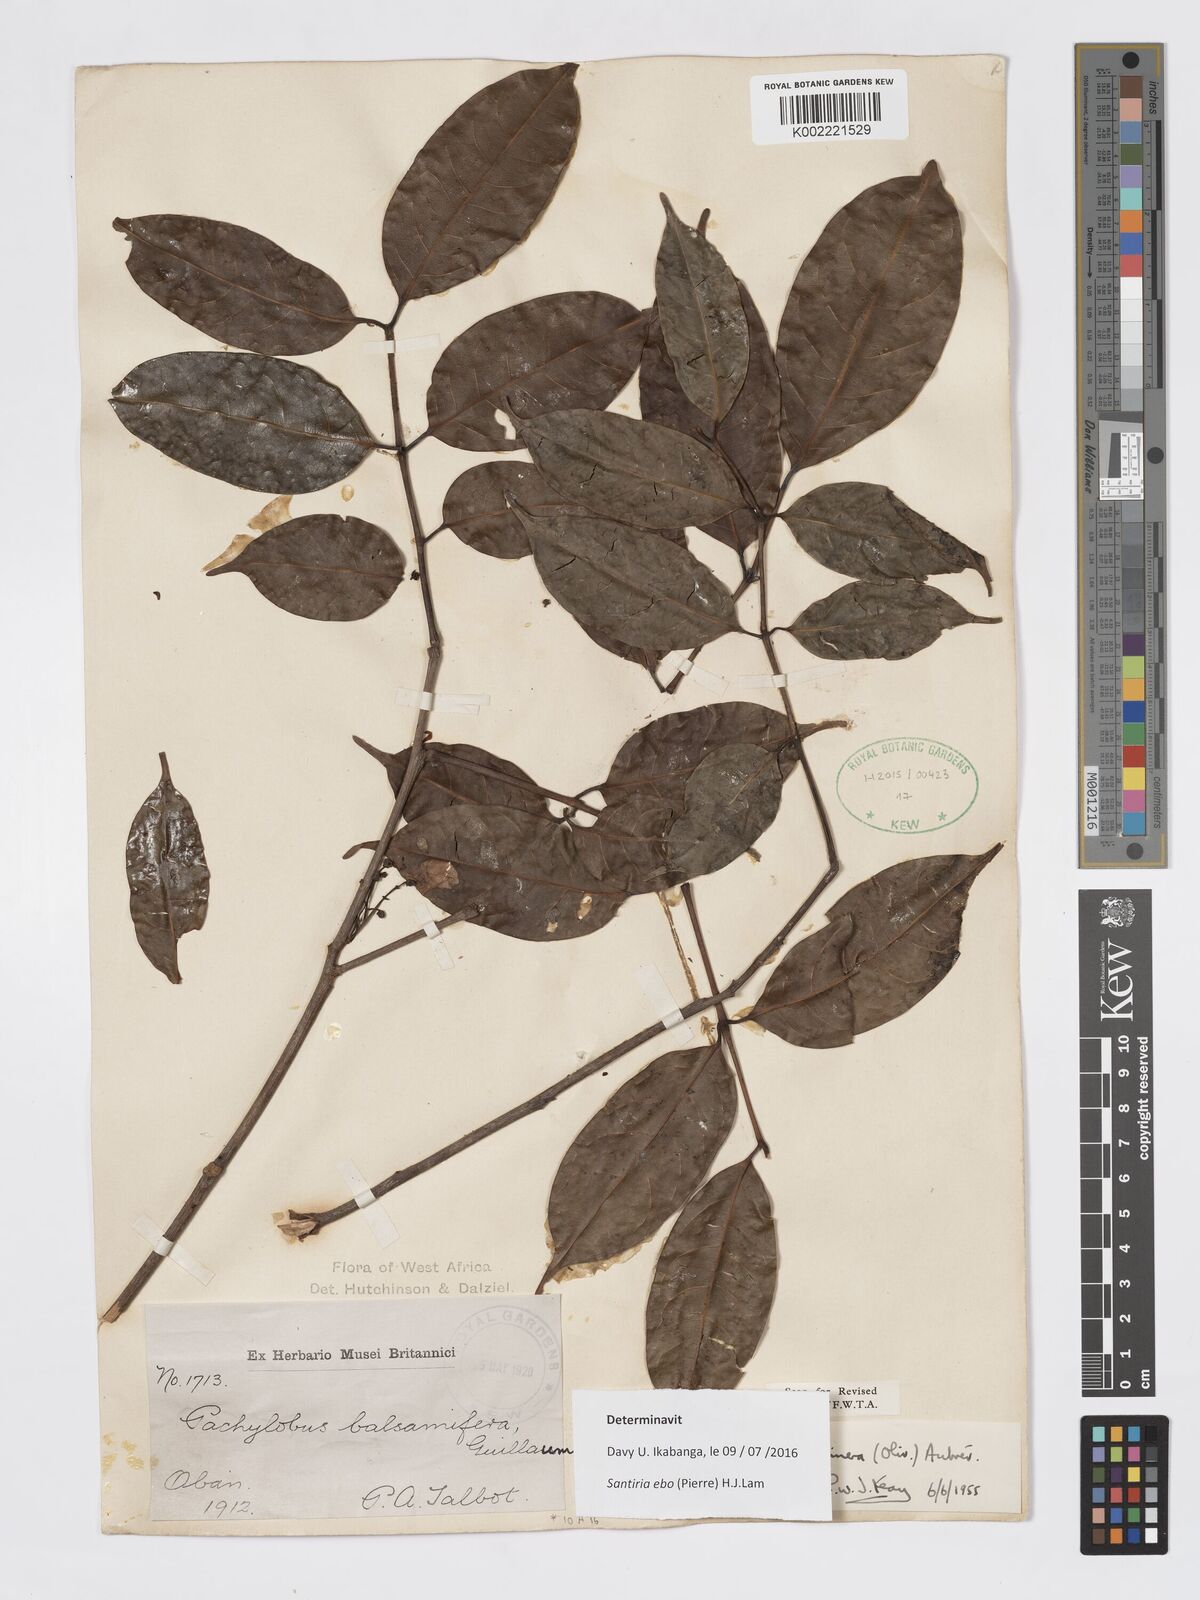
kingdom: Plantae
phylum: Tracheophyta
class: Magnoliopsida
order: Sapindales
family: Burseraceae
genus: Pachylobus
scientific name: Pachylobus trimerus
